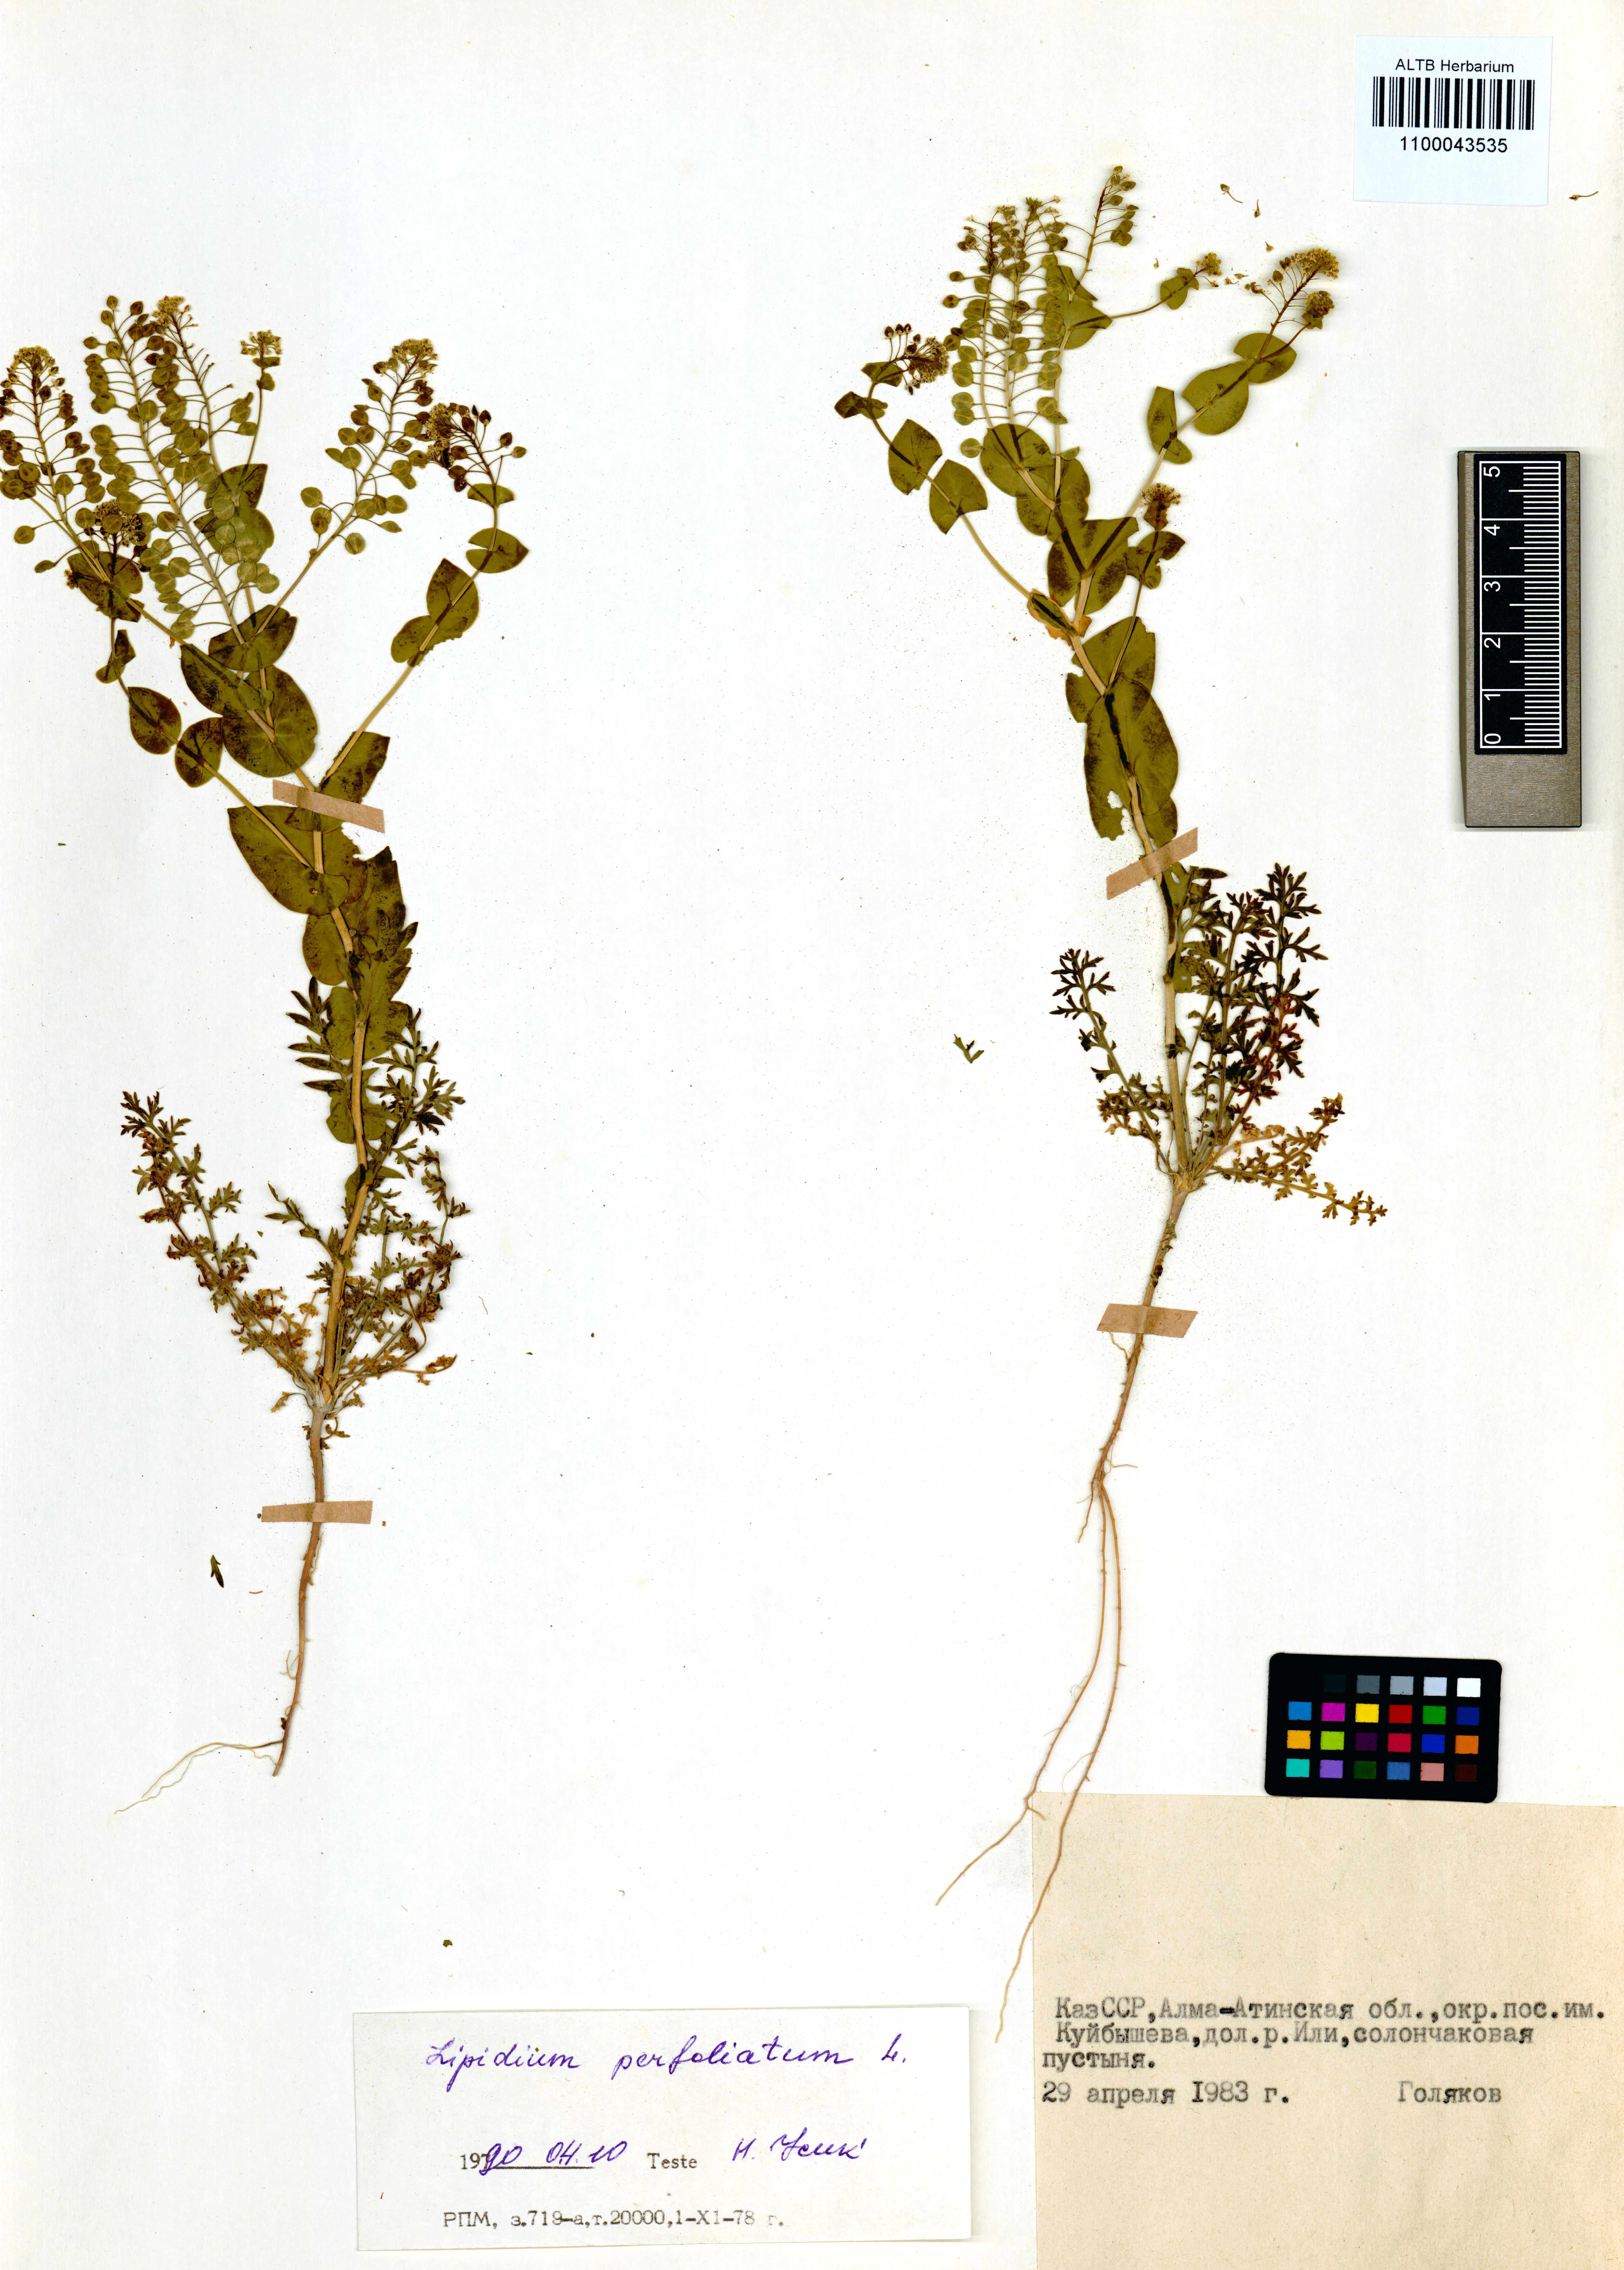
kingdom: Plantae
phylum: Tracheophyta
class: Magnoliopsida
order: Brassicales
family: Brassicaceae
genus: Lepidium
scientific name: Lepidium perfoliatum
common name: Perfoliate pepperwort
